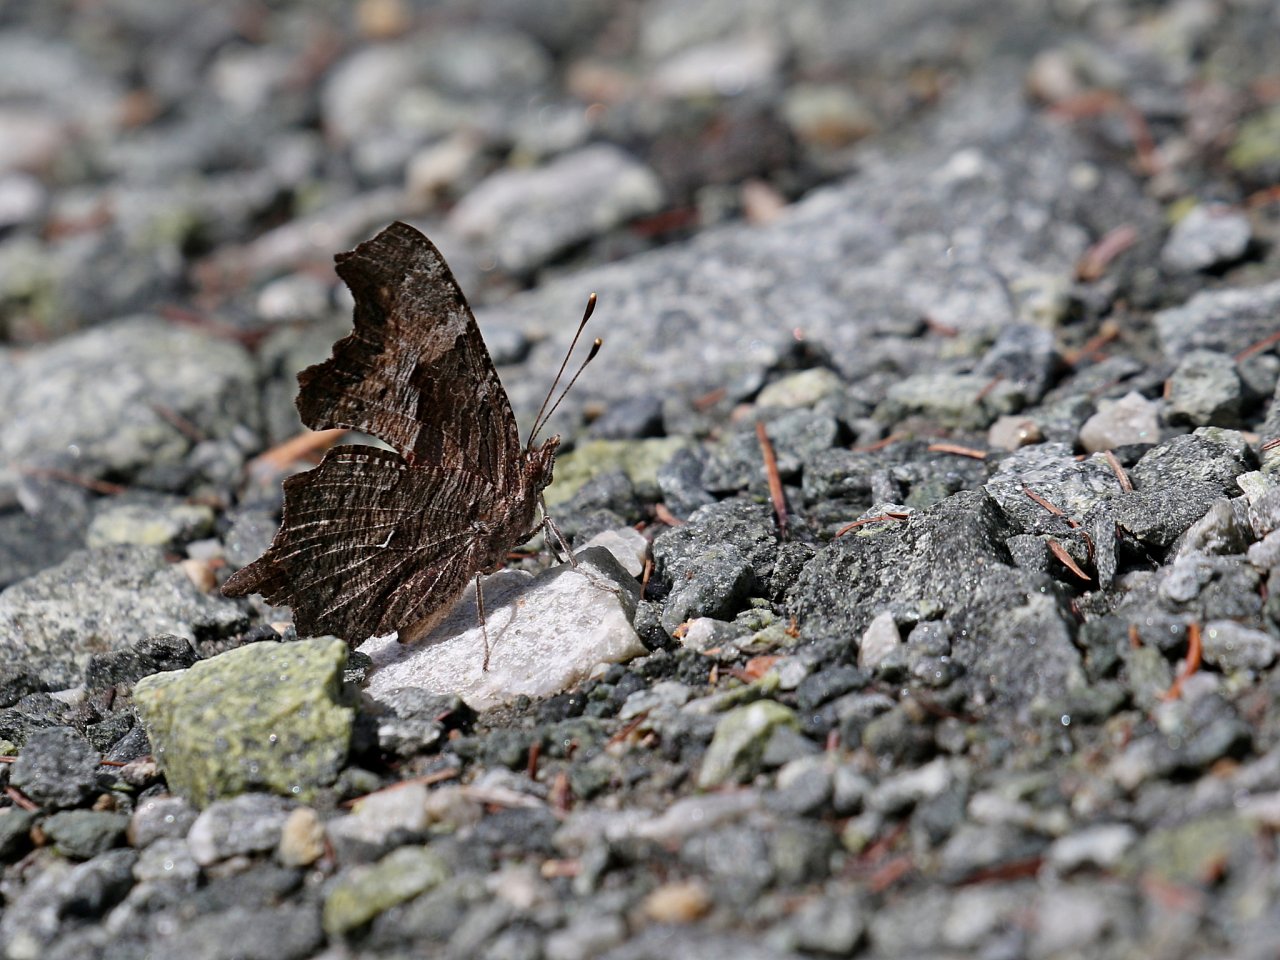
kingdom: Animalia
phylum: Arthropoda
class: Insecta
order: Lepidoptera
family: Nymphalidae
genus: Polygonia
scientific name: Polygonia progne
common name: Gray Comma
